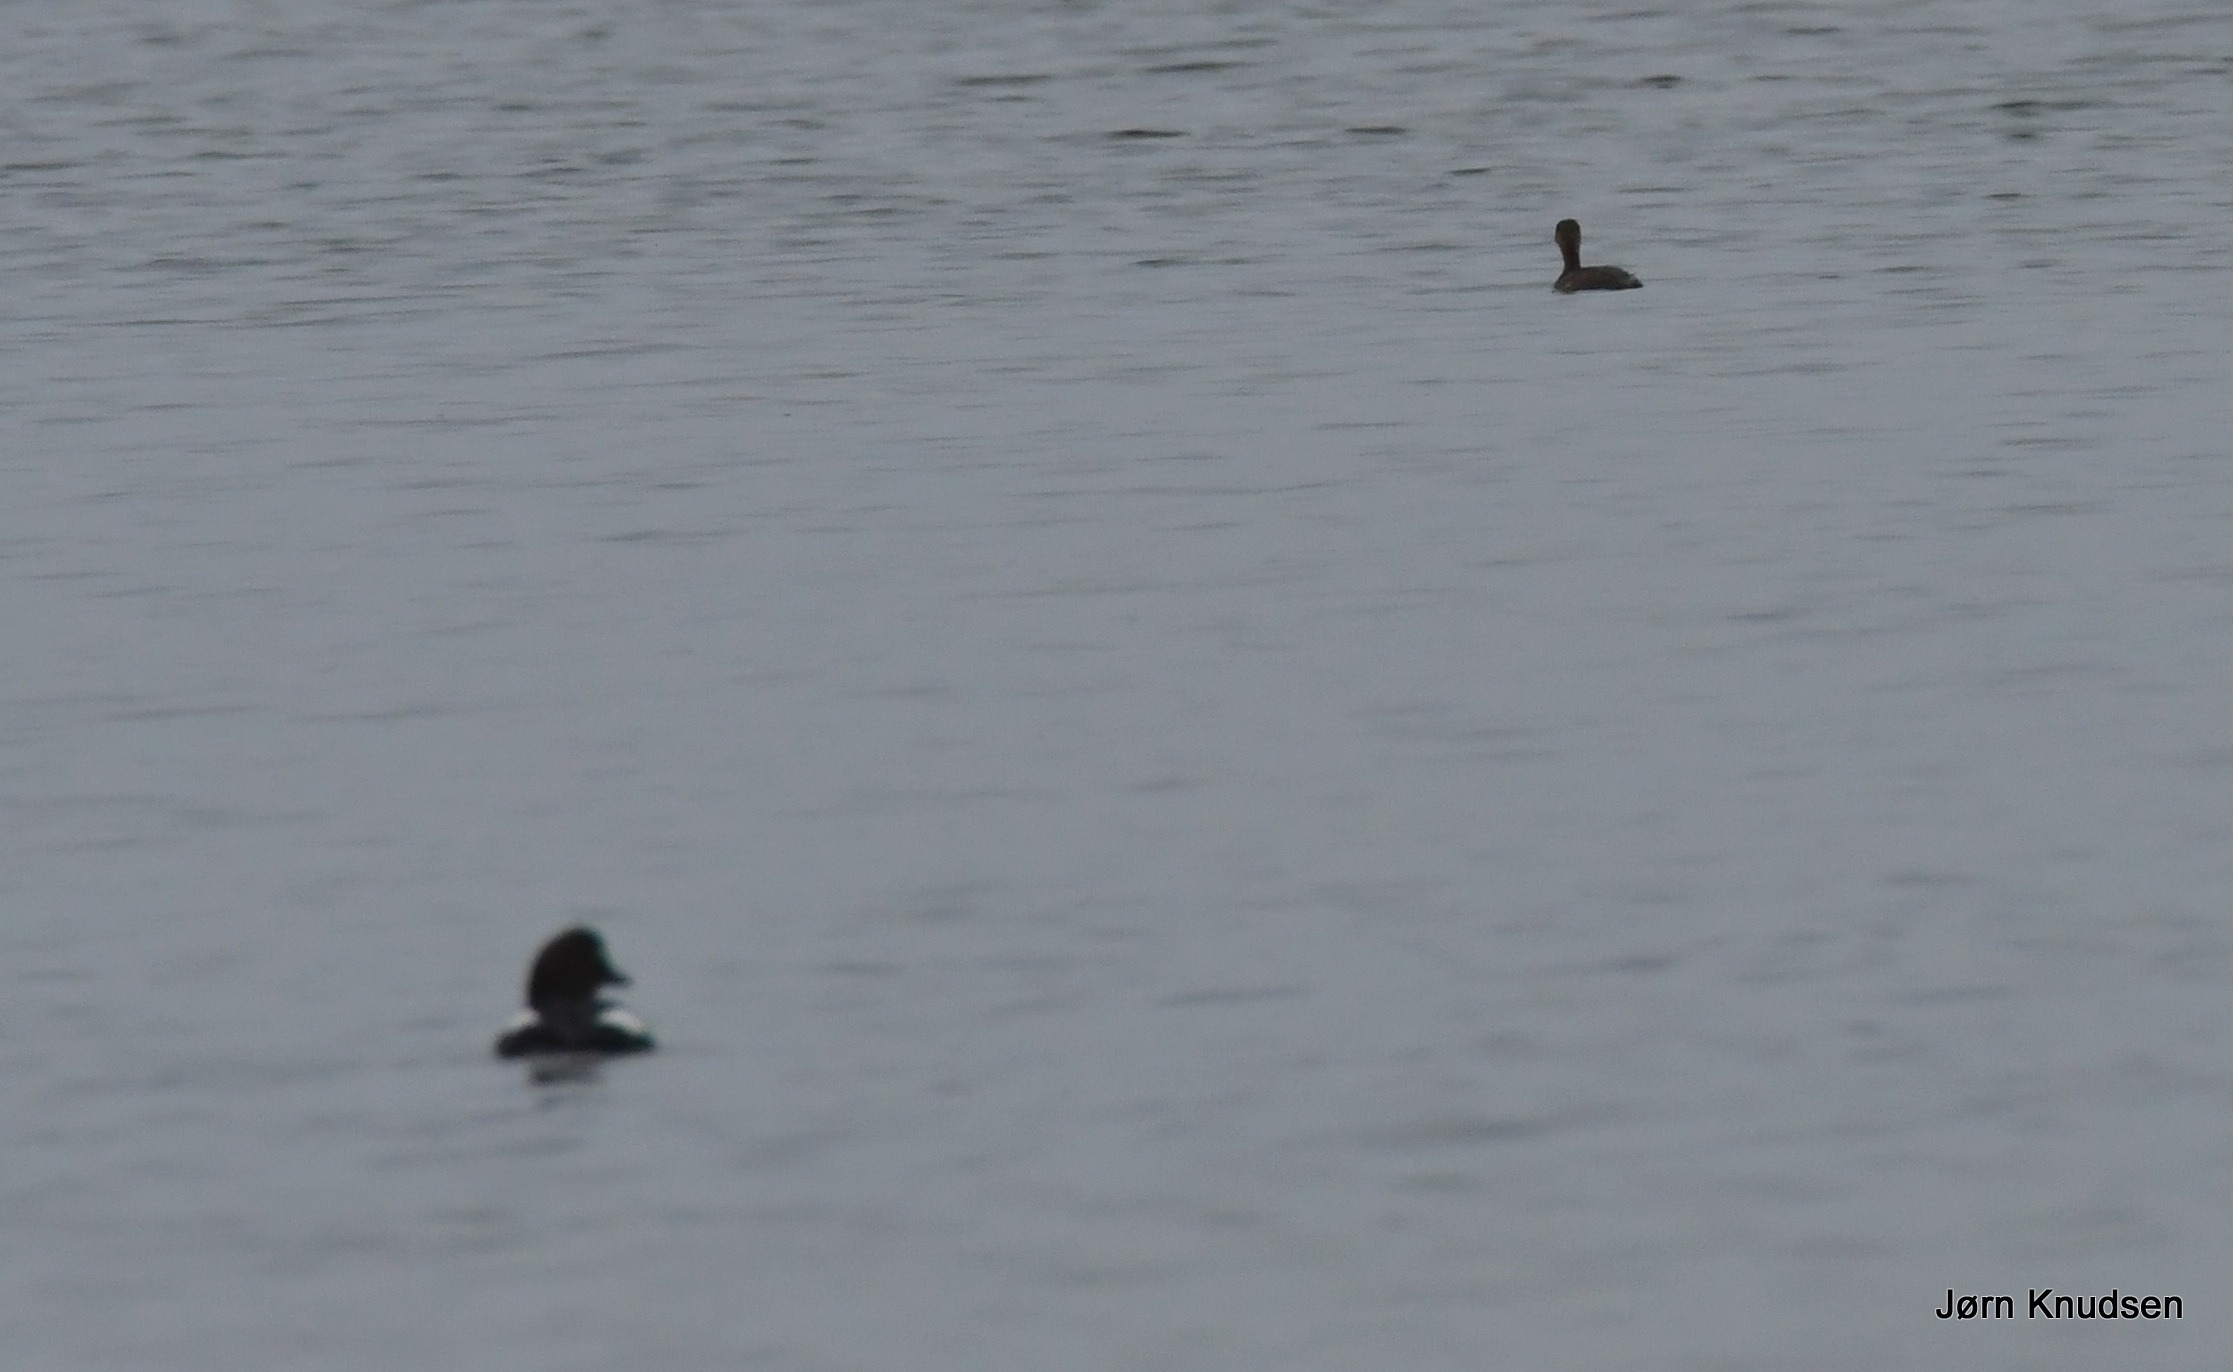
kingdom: Animalia
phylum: Chordata
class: Aves
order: Podicipediformes
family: Podicipedidae
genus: Tachybaptus
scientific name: Tachybaptus ruficollis
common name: Lille lappedykker
